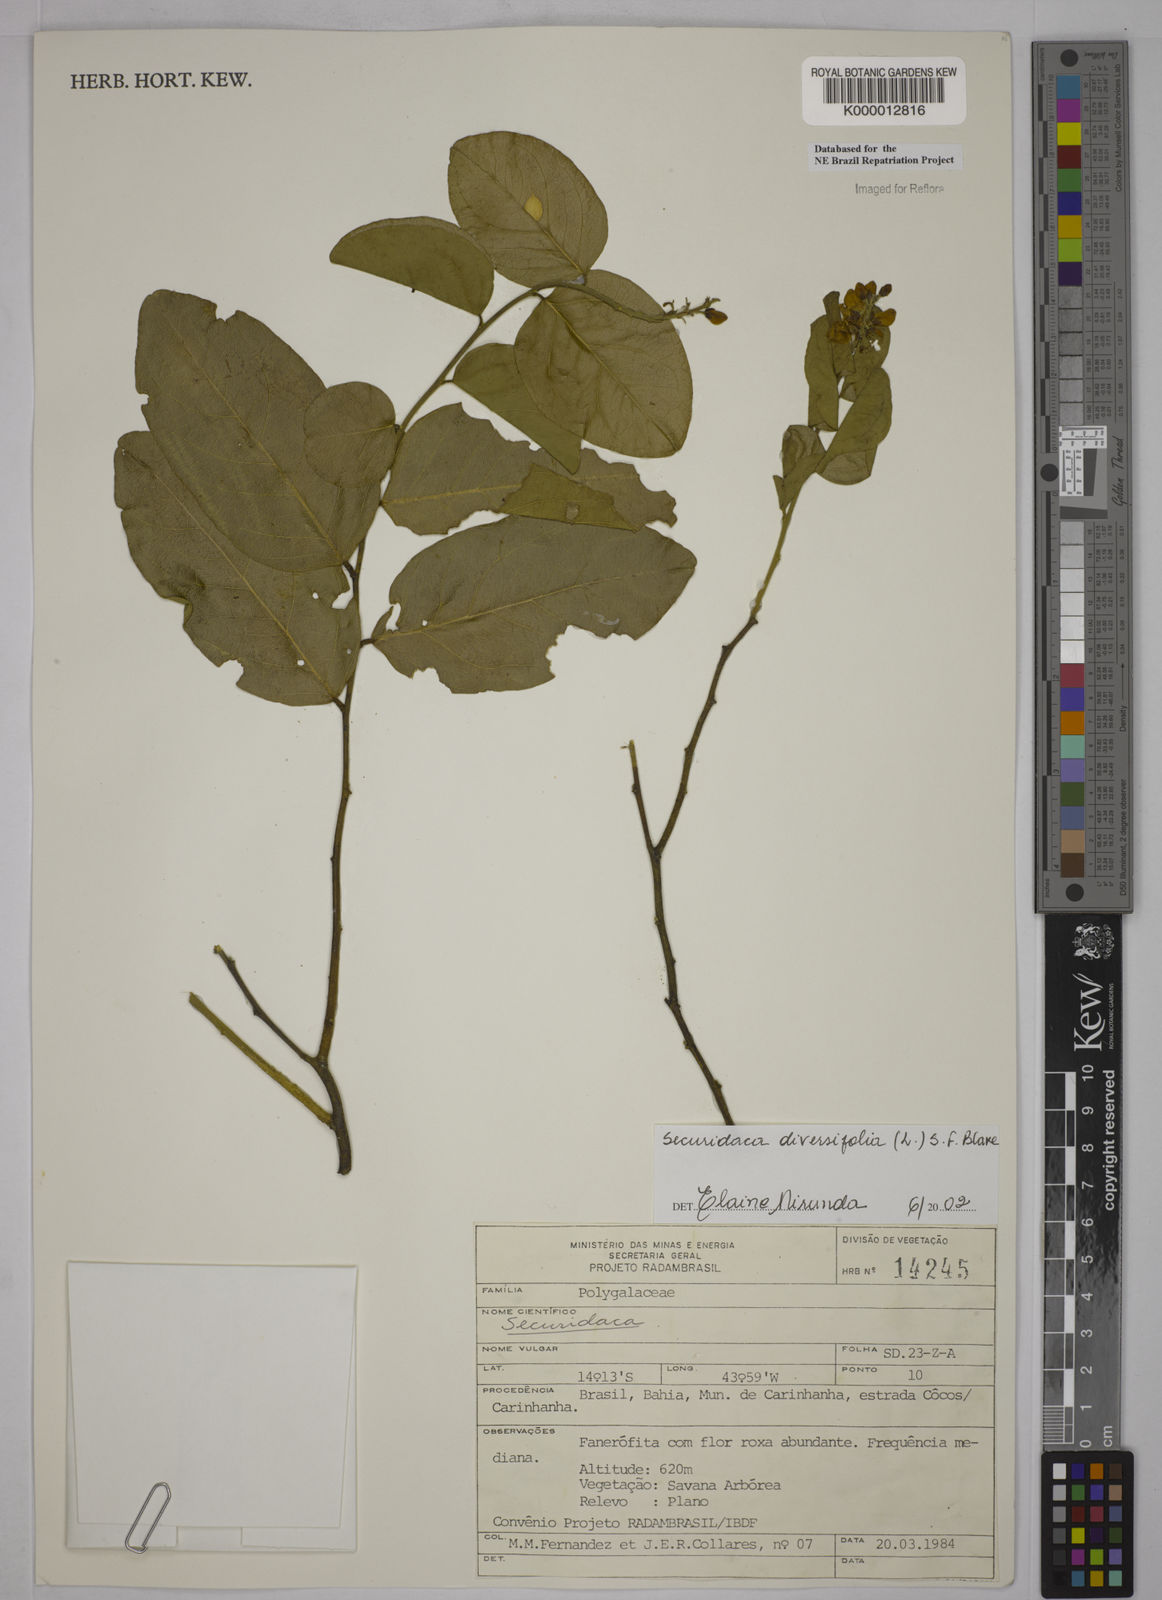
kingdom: Plantae
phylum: Tracheophyta
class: Magnoliopsida
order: Fabales
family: Polygalaceae
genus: Securidaca
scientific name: Securidaca diversifolia
